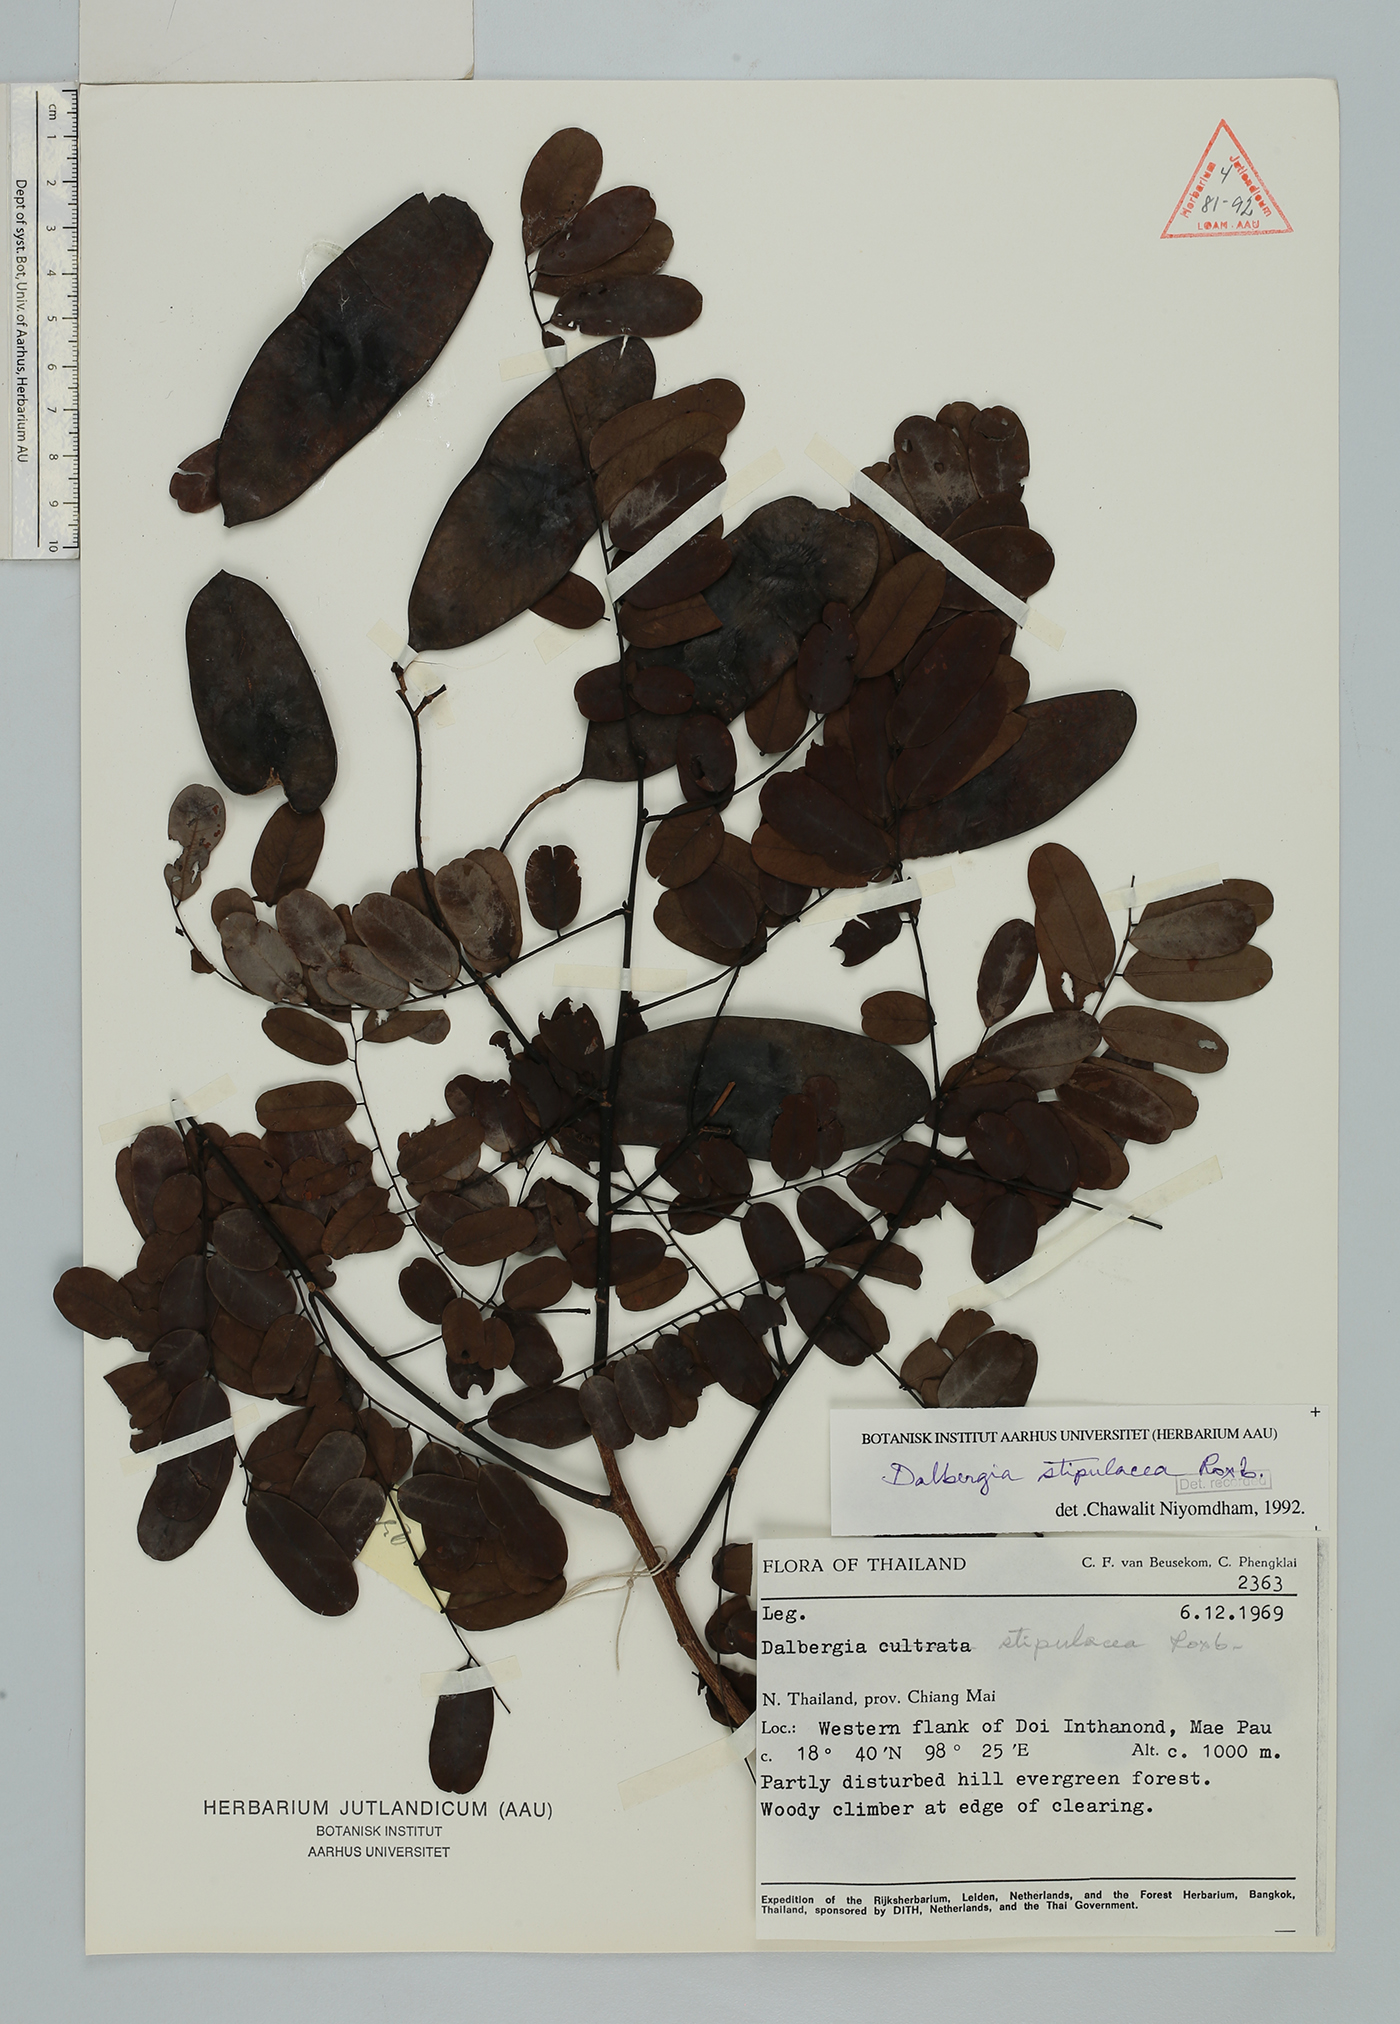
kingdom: Plantae
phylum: Tracheophyta
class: Magnoliopsida
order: Fabales
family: Fabaceae
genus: Dalbergia
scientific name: Dalbergia stipulacea
